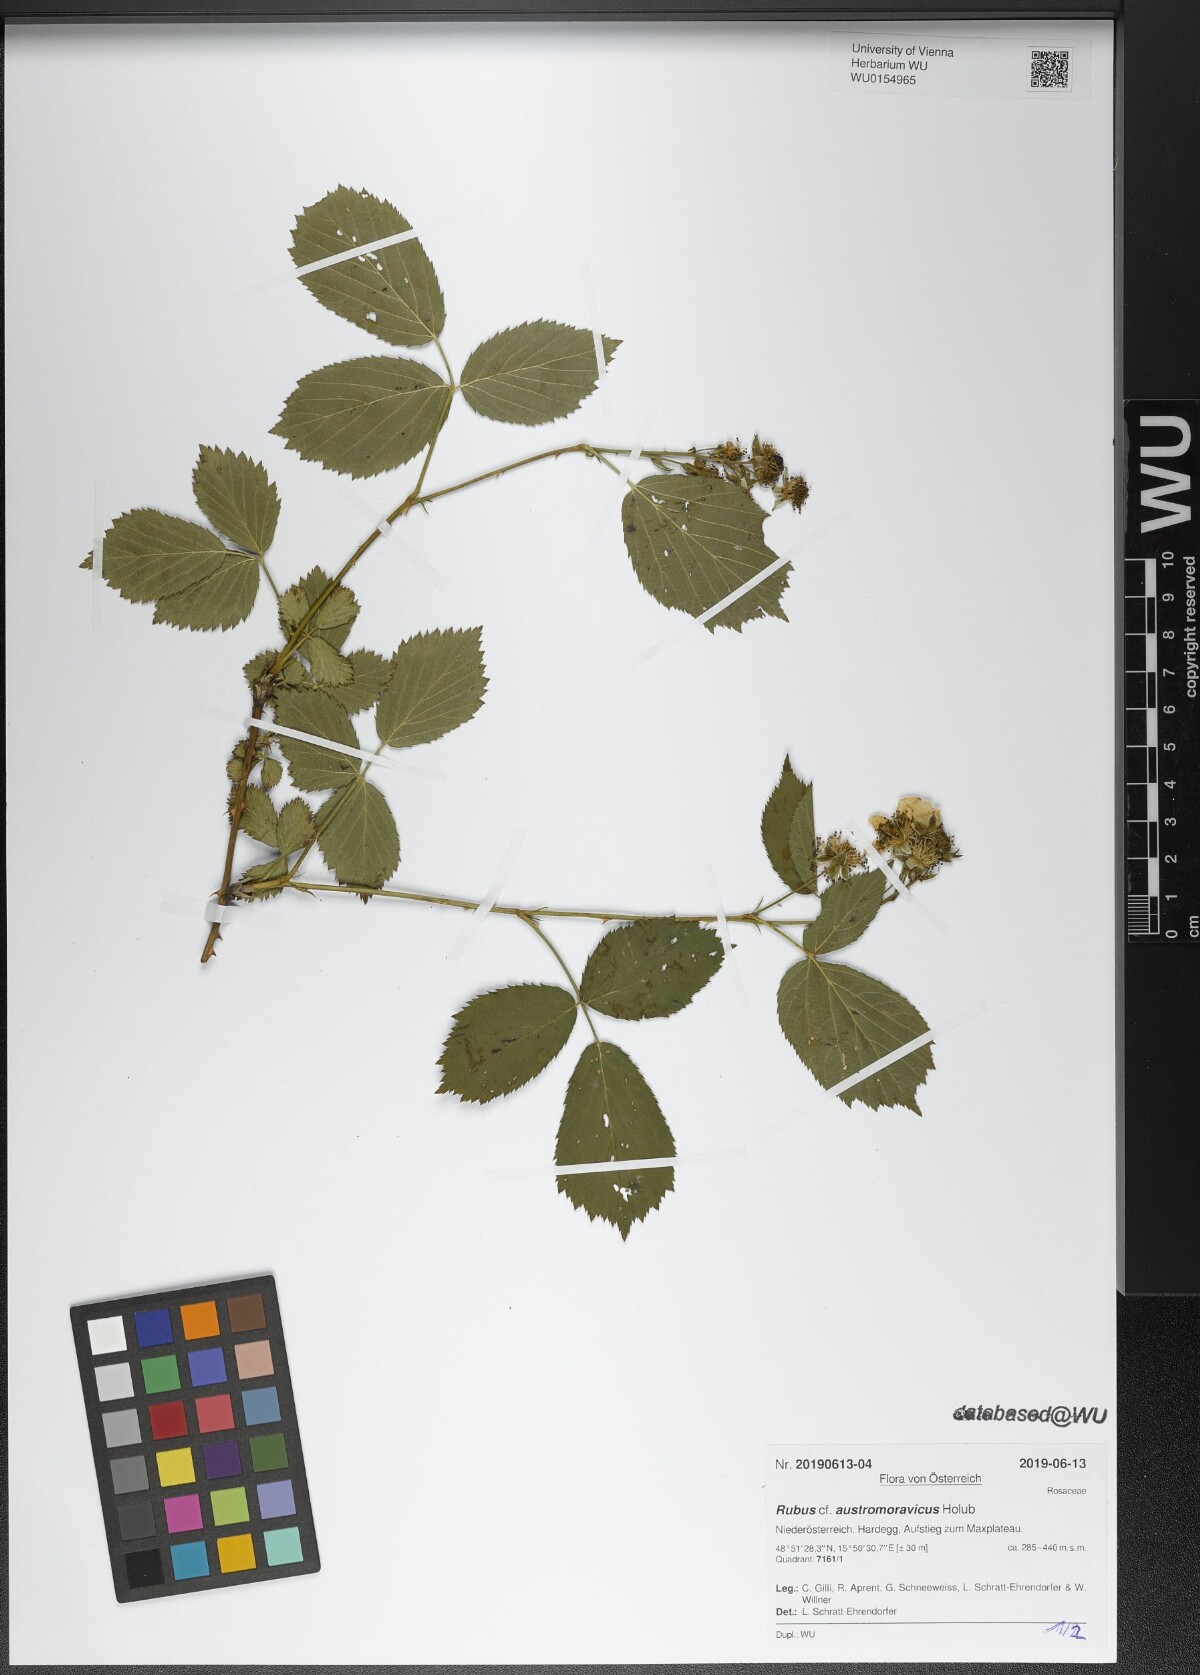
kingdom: Plantae
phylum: Tracheophyta
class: Magnoliopsida
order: Rosales
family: Rosaceae
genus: Rubus
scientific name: Rubus austromoravicus
